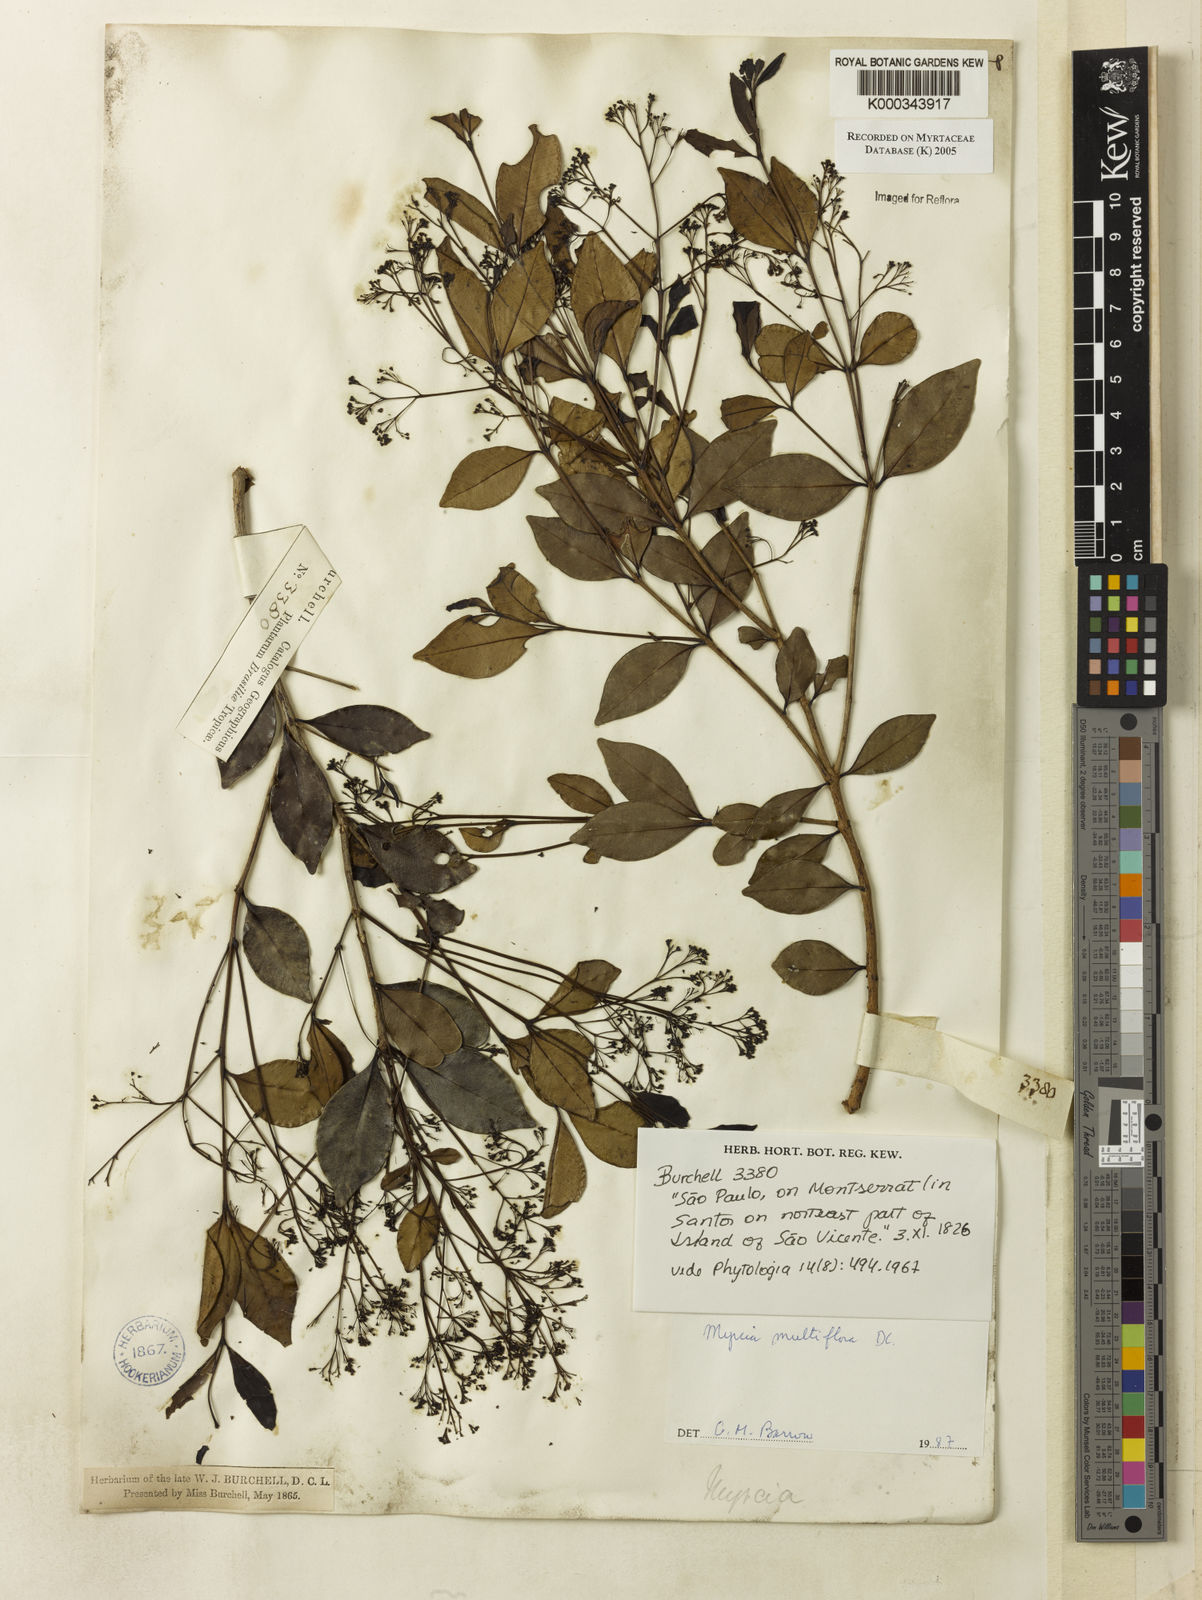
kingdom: Plantae
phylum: Tracheophyta
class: Magnoliopsida
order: Myrtales
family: Myrtaceae
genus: Myrcia
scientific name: Myrcia multiflora
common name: Pedra hume
